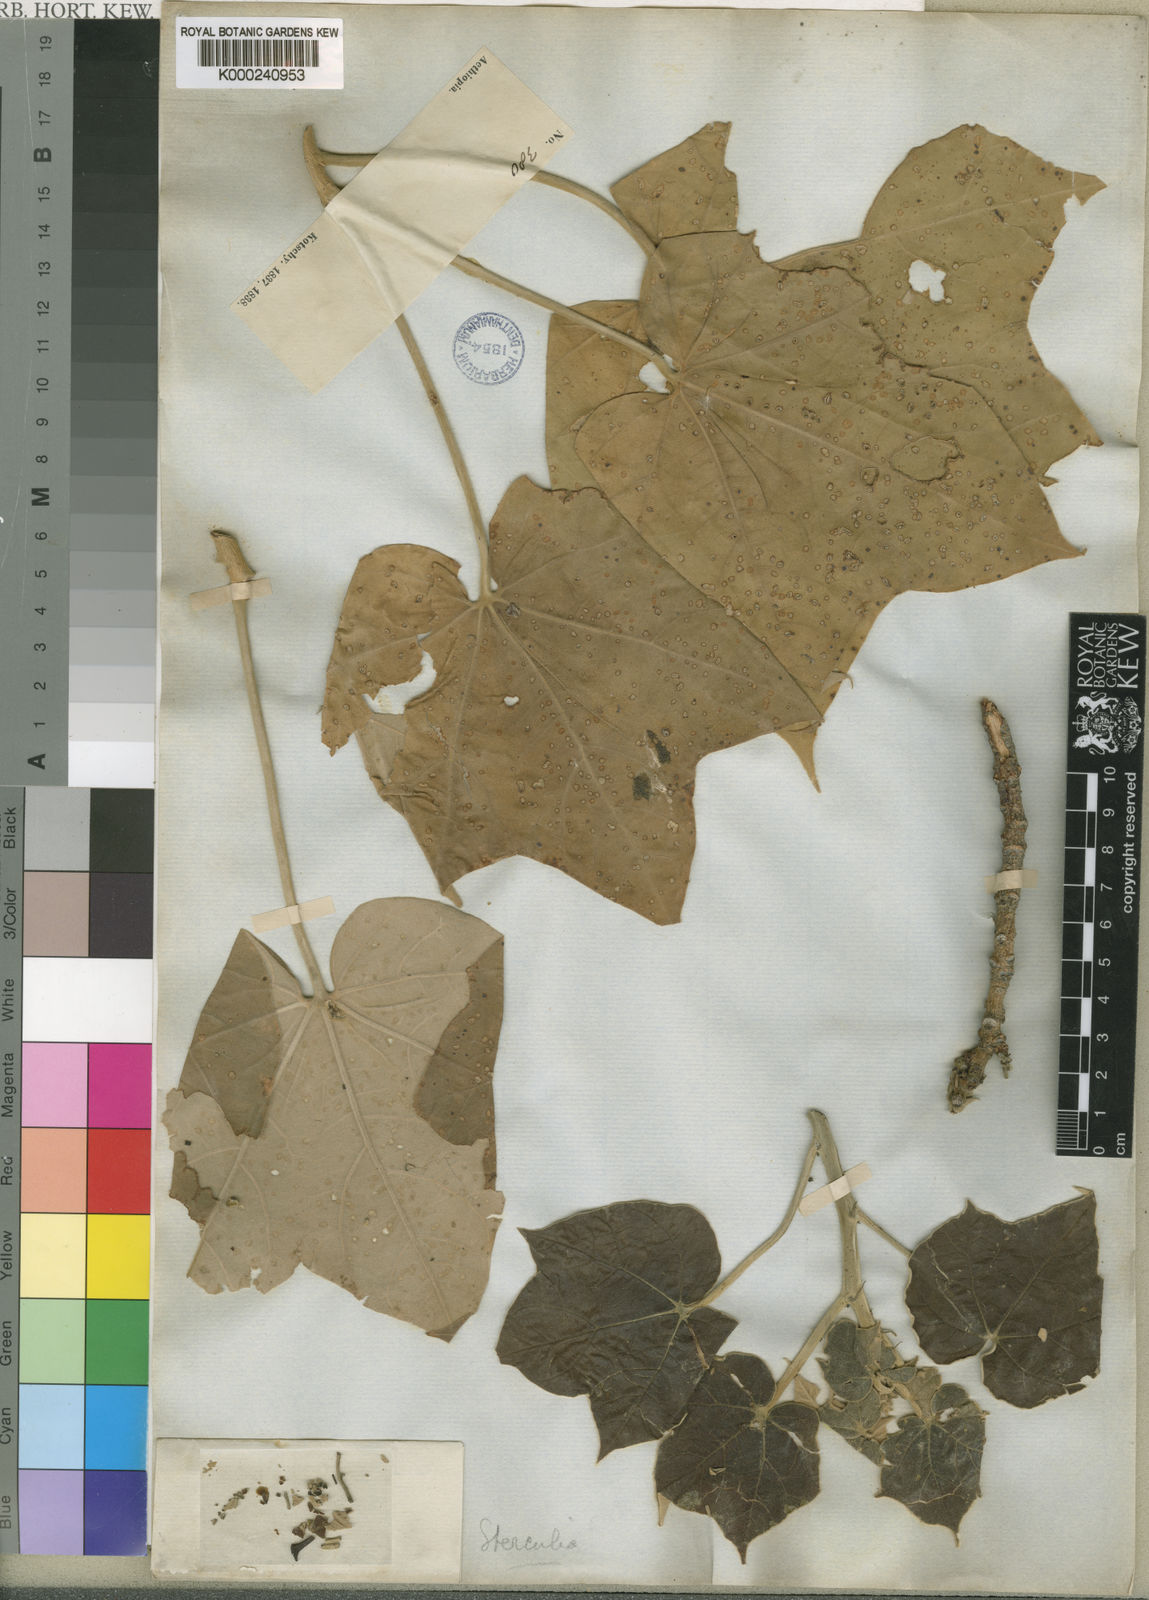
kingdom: Plantae
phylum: Tracheophyta
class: Magnoliopsida
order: Malvales
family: Malvaceae
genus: Sterculia
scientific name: Sterculia cinerea
